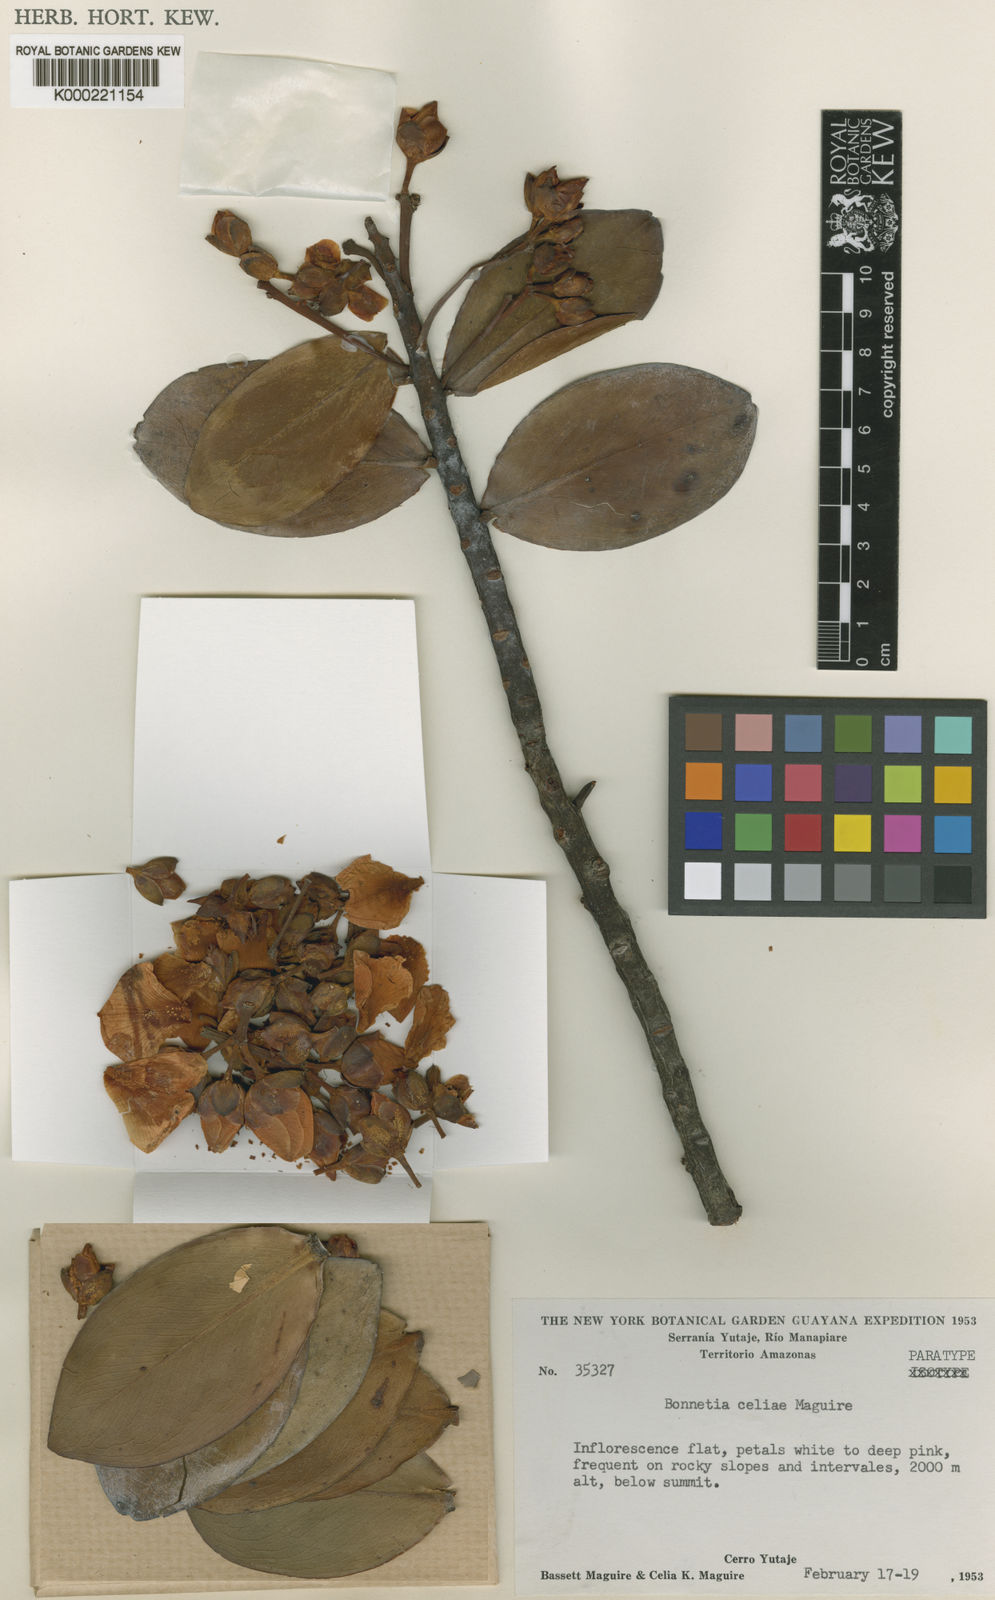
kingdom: Plantae
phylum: Tracheophyta
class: Magnoliopsida
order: Malpighiales
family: Bonnetiaceae
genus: Bonnetia
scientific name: Bonnetia celiae
